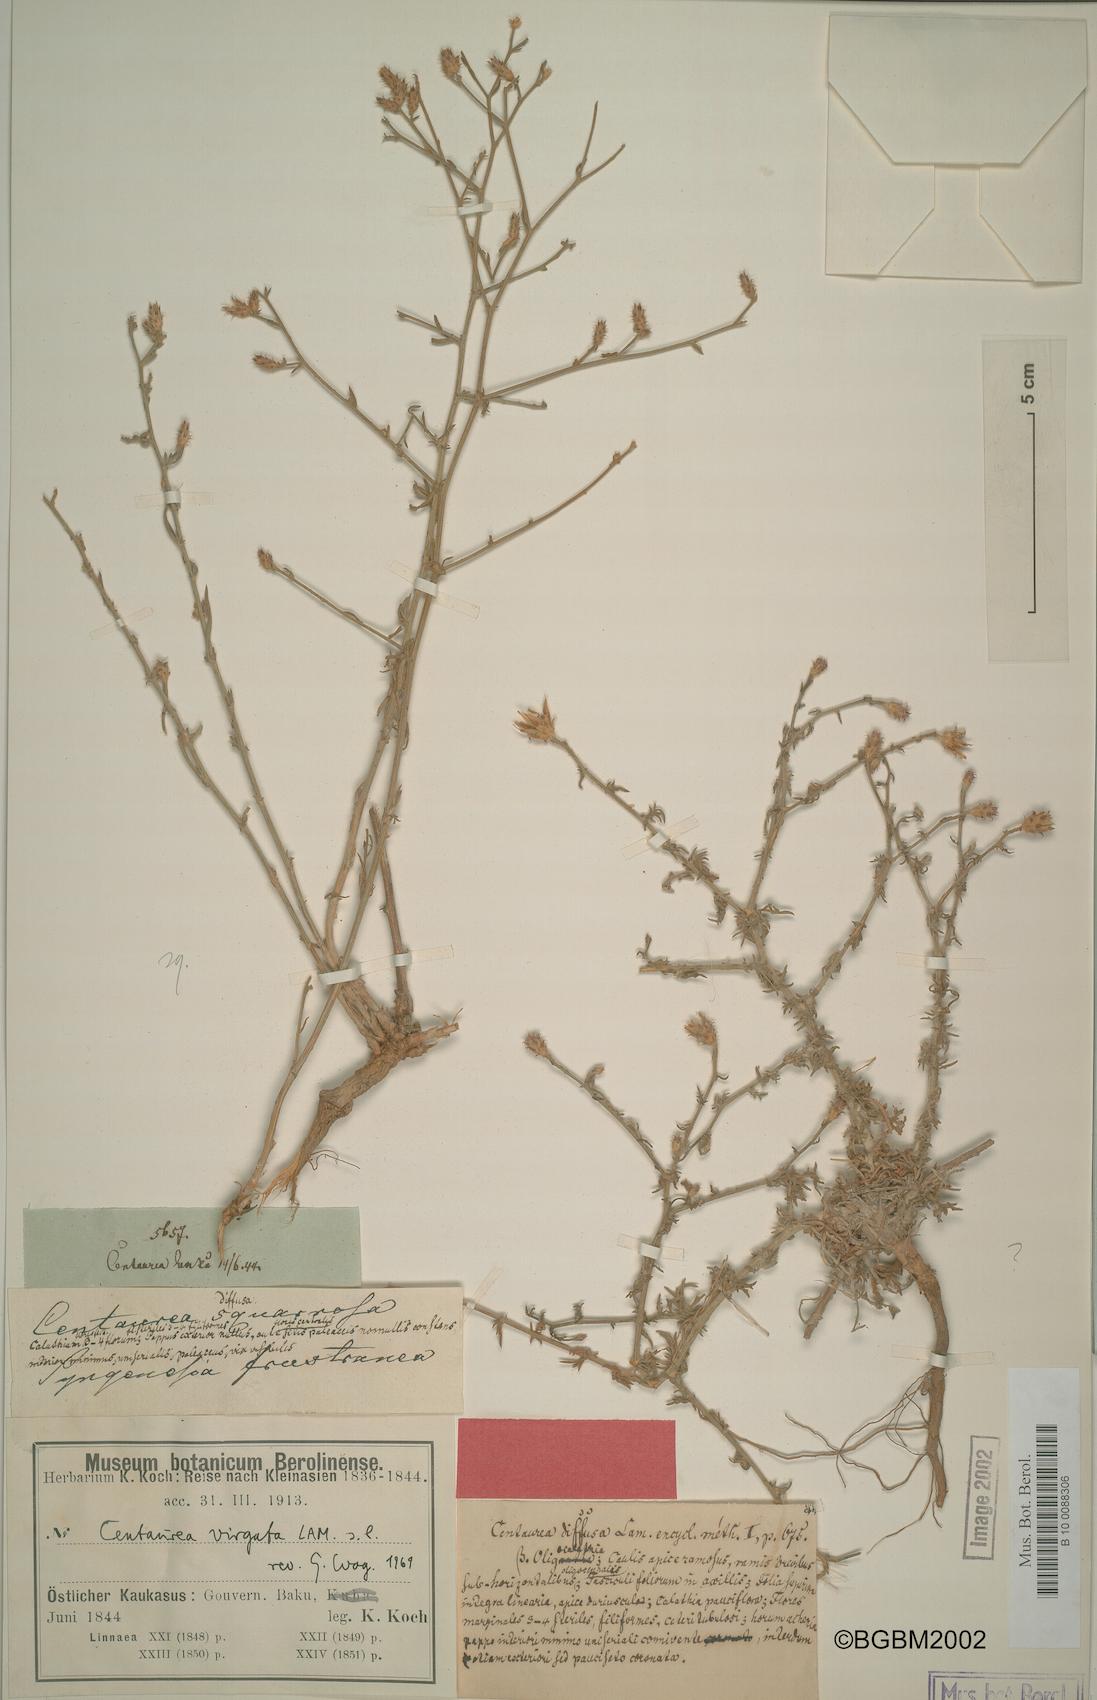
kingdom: Plantae
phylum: Tracheophyta
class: Magnoliopsida
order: Asterales
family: Asteraceae
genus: Centaurea
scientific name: Centaurea virgata
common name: Squarrose knapweed
